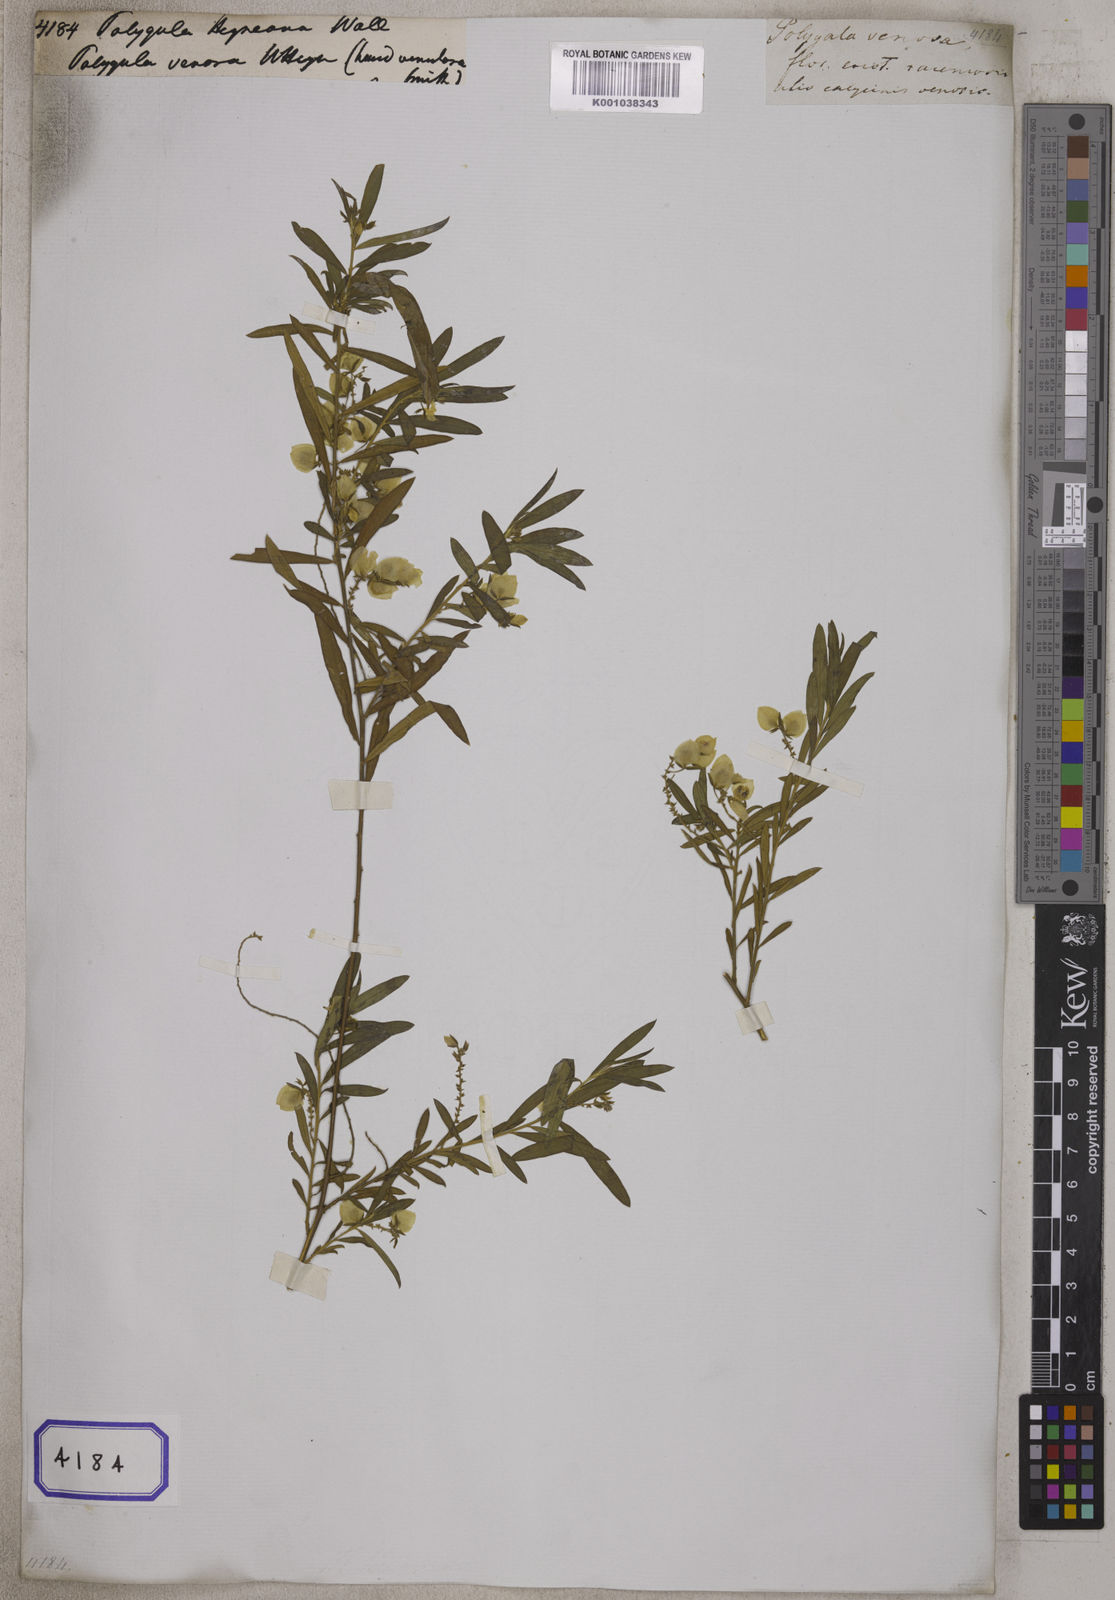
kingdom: Plantae
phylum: Tracheophyta
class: Magnoliopsida
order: Fabales
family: Polygalaceae
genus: Polygala
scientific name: Polygala
